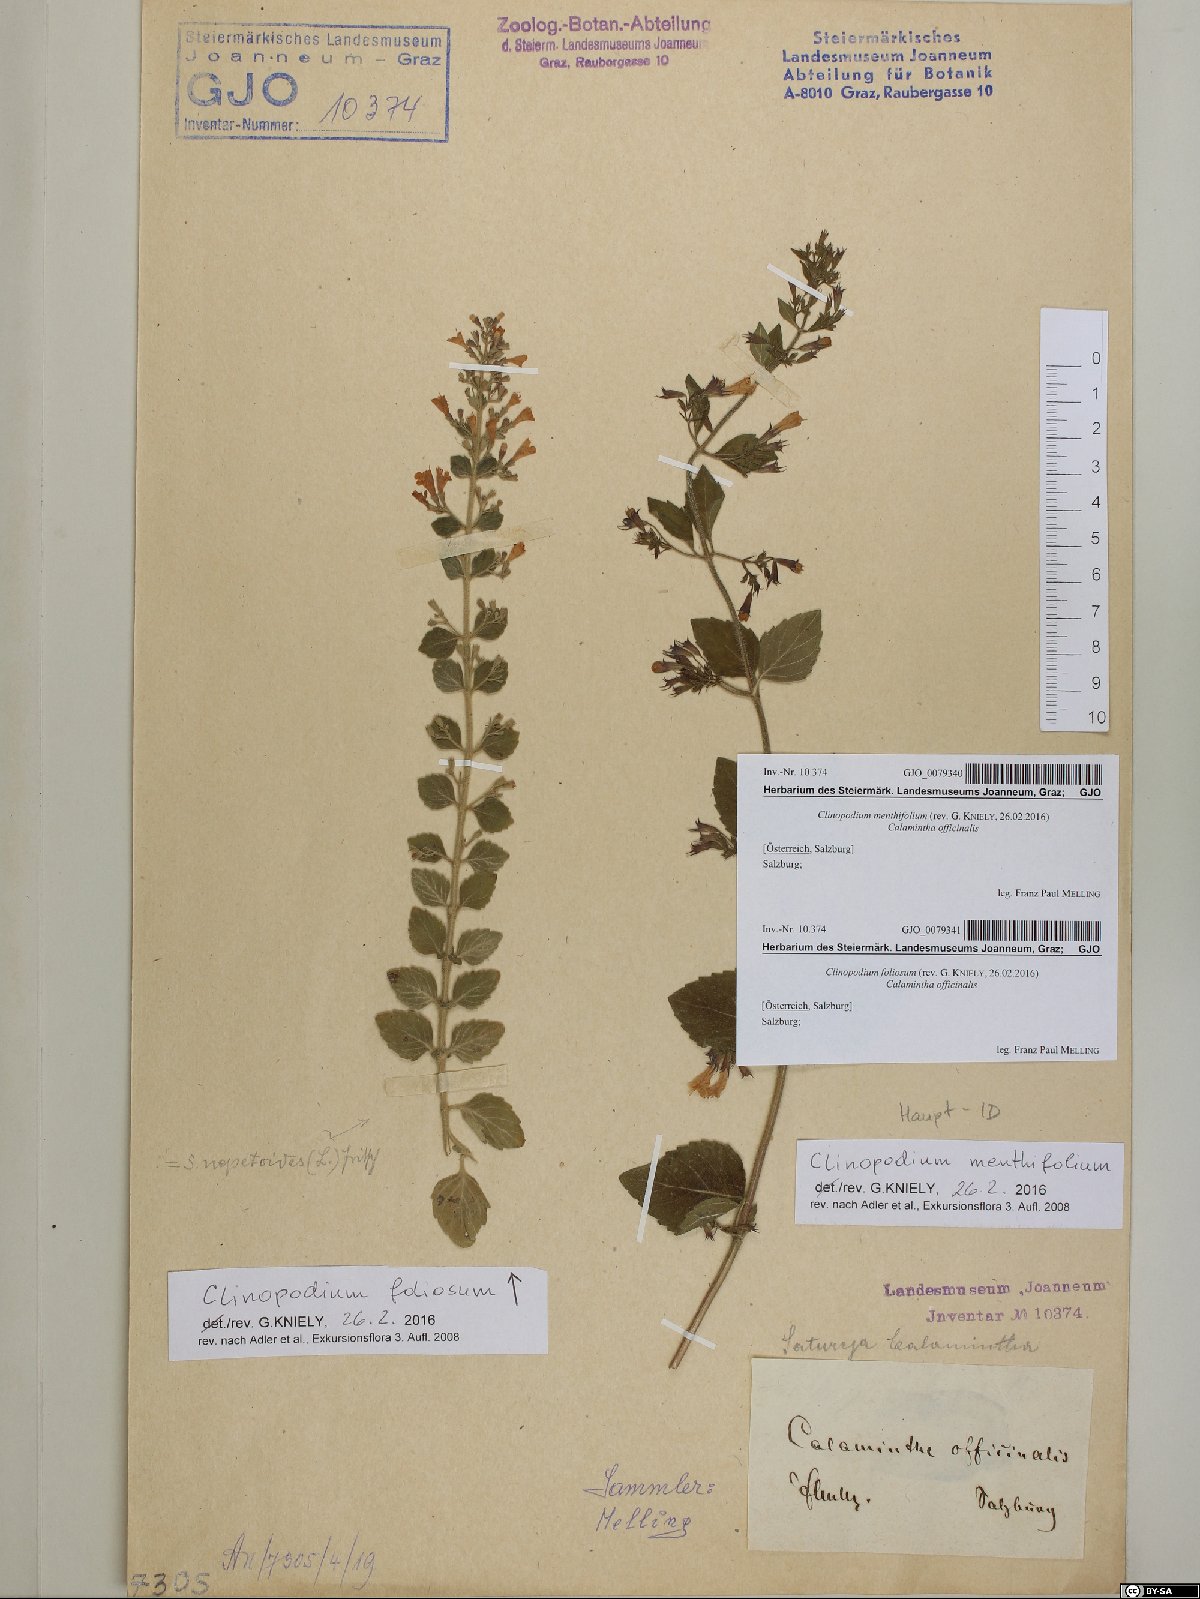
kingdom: Plantae
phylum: Tracheophyta
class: Magnoliopsida
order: Lamiales
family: Lamiaceae
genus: Clinopodium
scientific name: Clinopodium foliolosum
